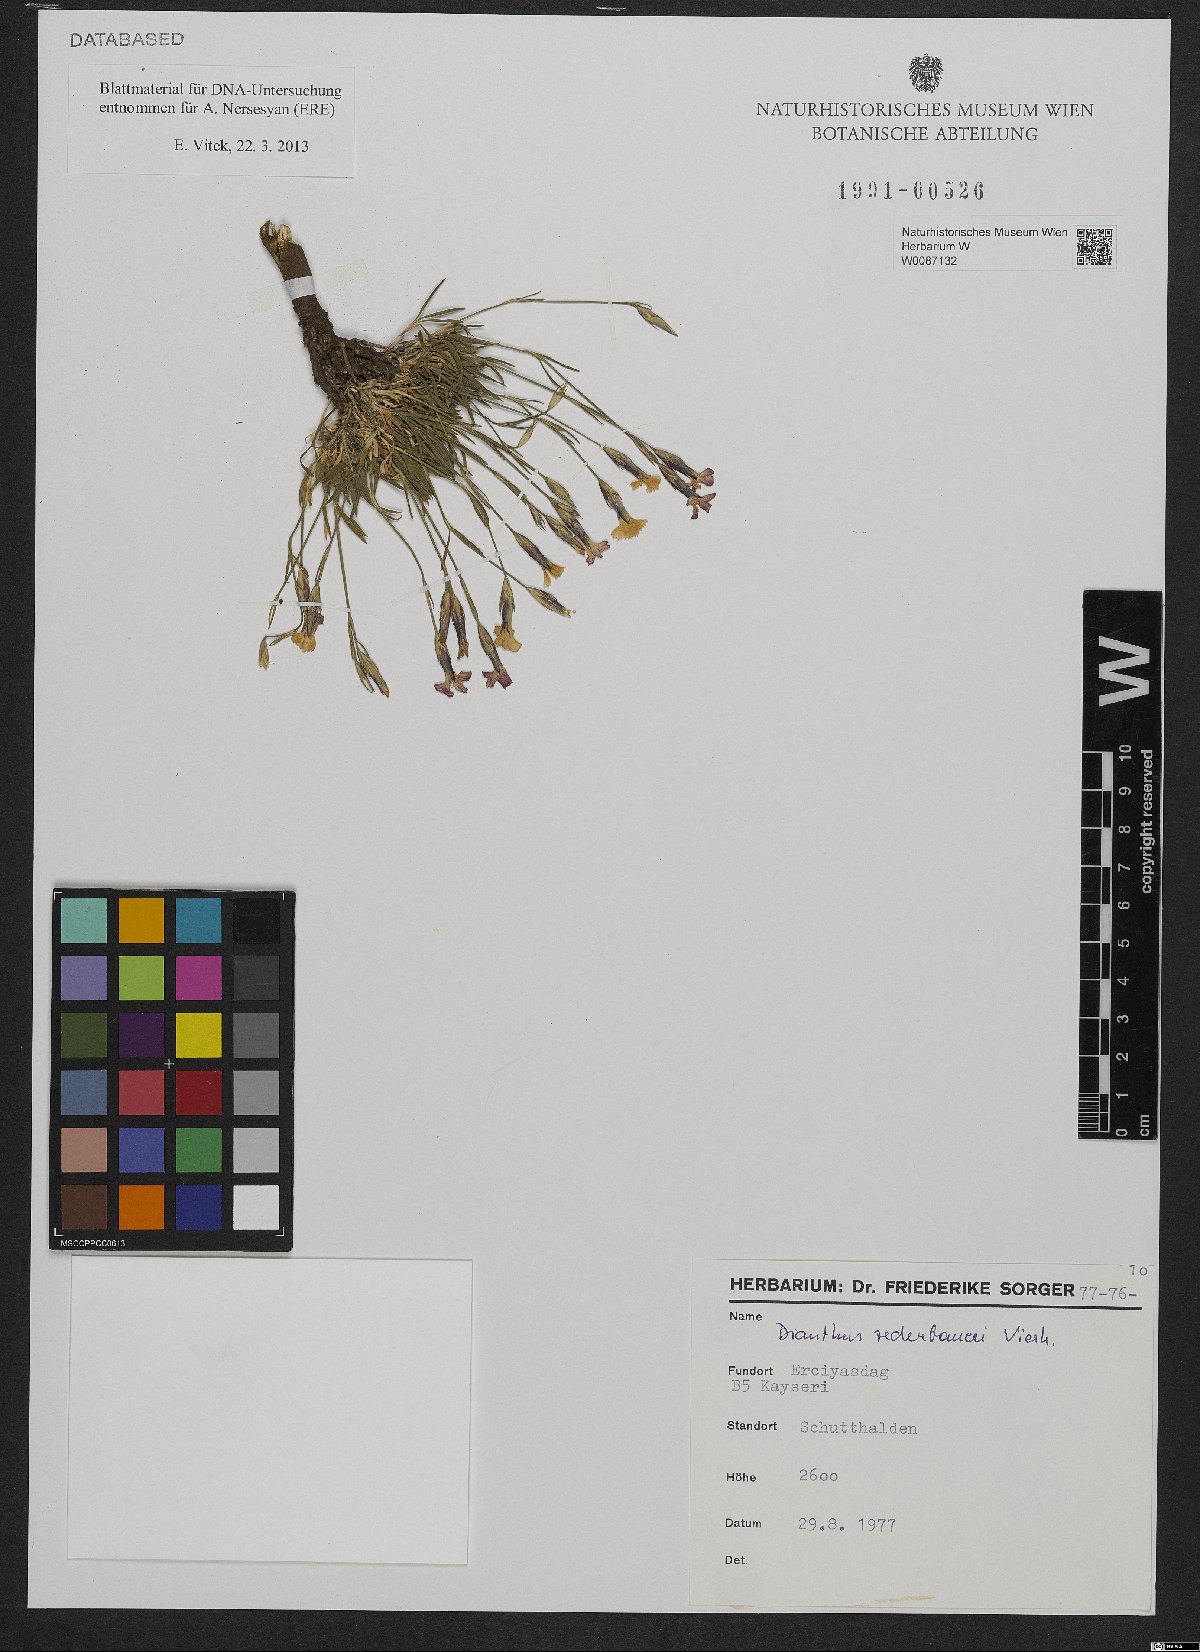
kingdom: Plantae
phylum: Tracheophyta
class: Magnoliopsida
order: Caryophyllales
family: Caryophyllaceae
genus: Dianthus
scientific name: Dianthus zederbaueri
